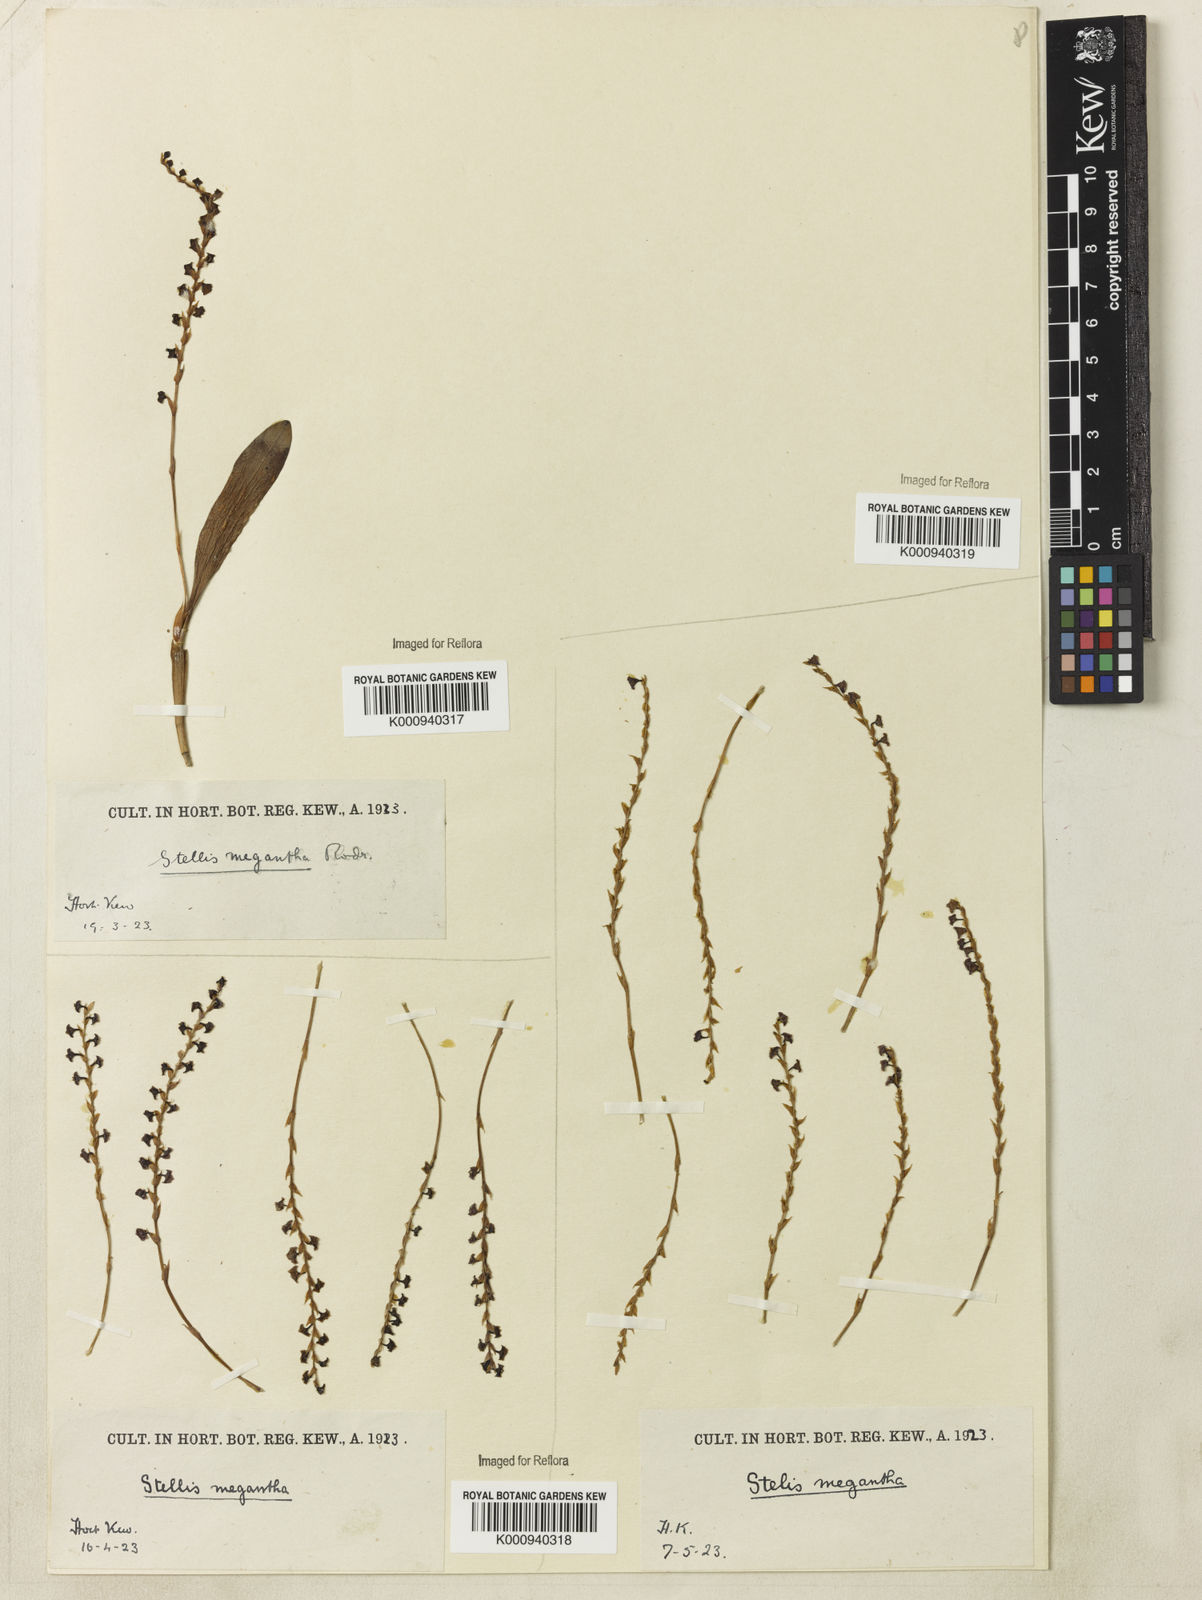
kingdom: Plantae
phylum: Tracheophyta
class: Liliopsida
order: Asparagales
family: Orchidaceae
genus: Stelis
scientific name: Stelis grandiflora
